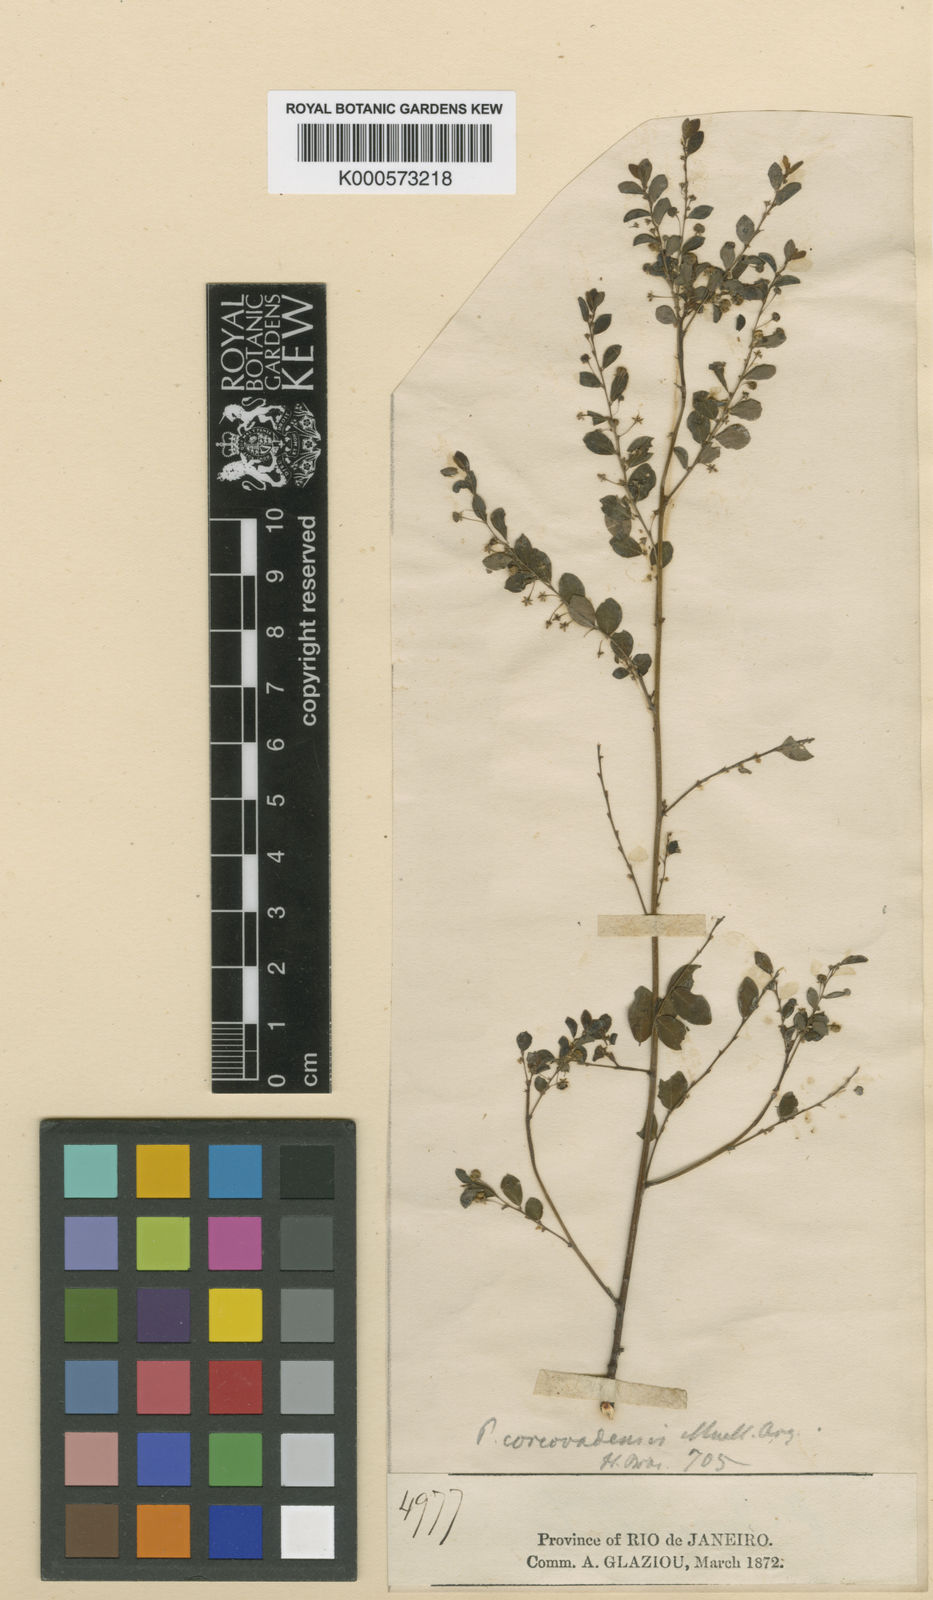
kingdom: Plantae
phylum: Tracheophyta
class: Magnoliopsida
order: Malpighiales
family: Phyllanthaceae
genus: Phyllanthus
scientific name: Phyllanthus
